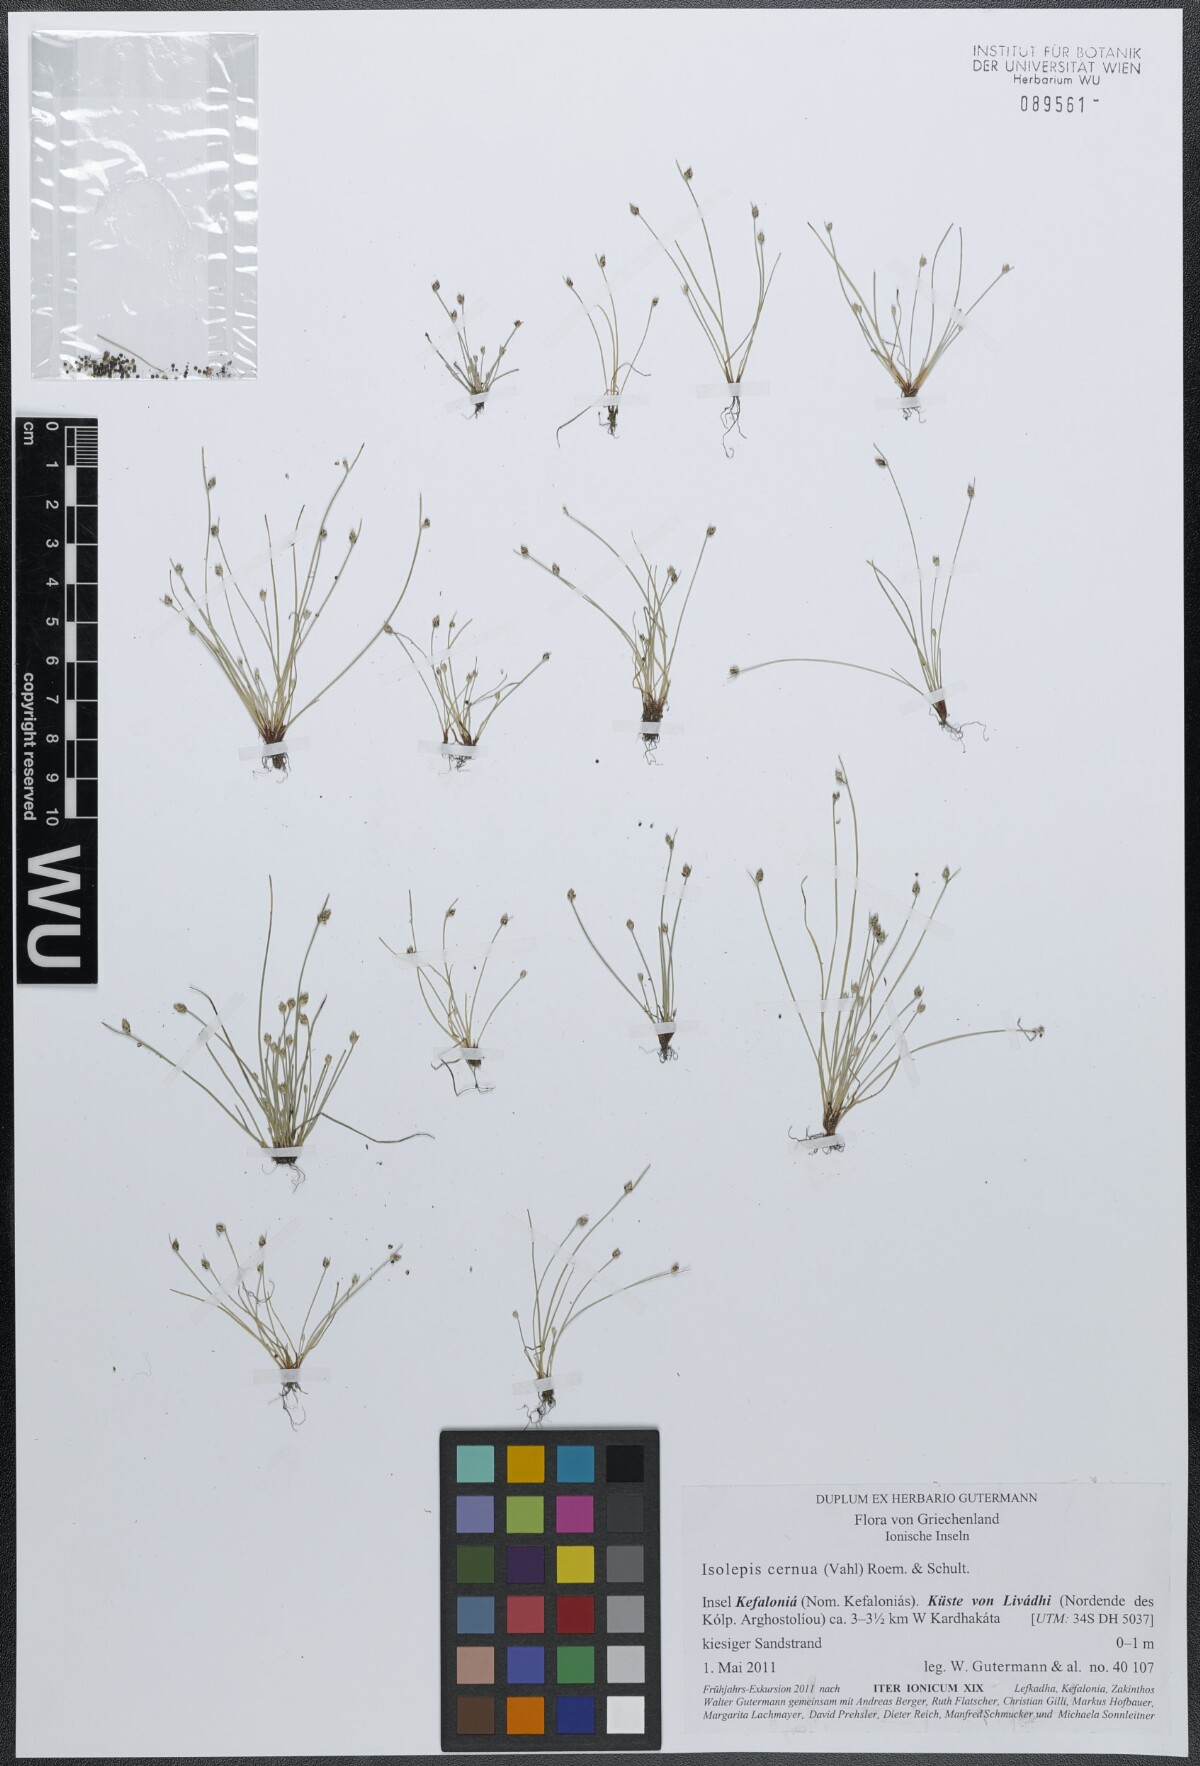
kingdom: Plantae
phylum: Tracheophyta
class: Liliopsida
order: Poales
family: Cyperaceae
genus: Isolepis
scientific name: Isolepis cernua
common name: Slender club-rush
